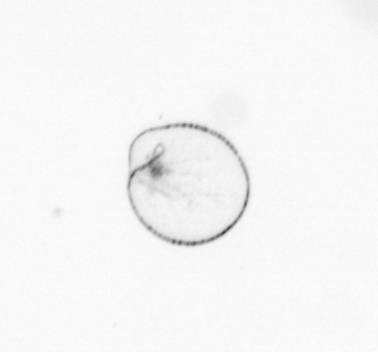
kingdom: Chromista
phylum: Myzozoa
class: Dinophyceae
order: Noctilucales
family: Noctilucaceae
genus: Noctiluca
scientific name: Noctiluca scintillans
